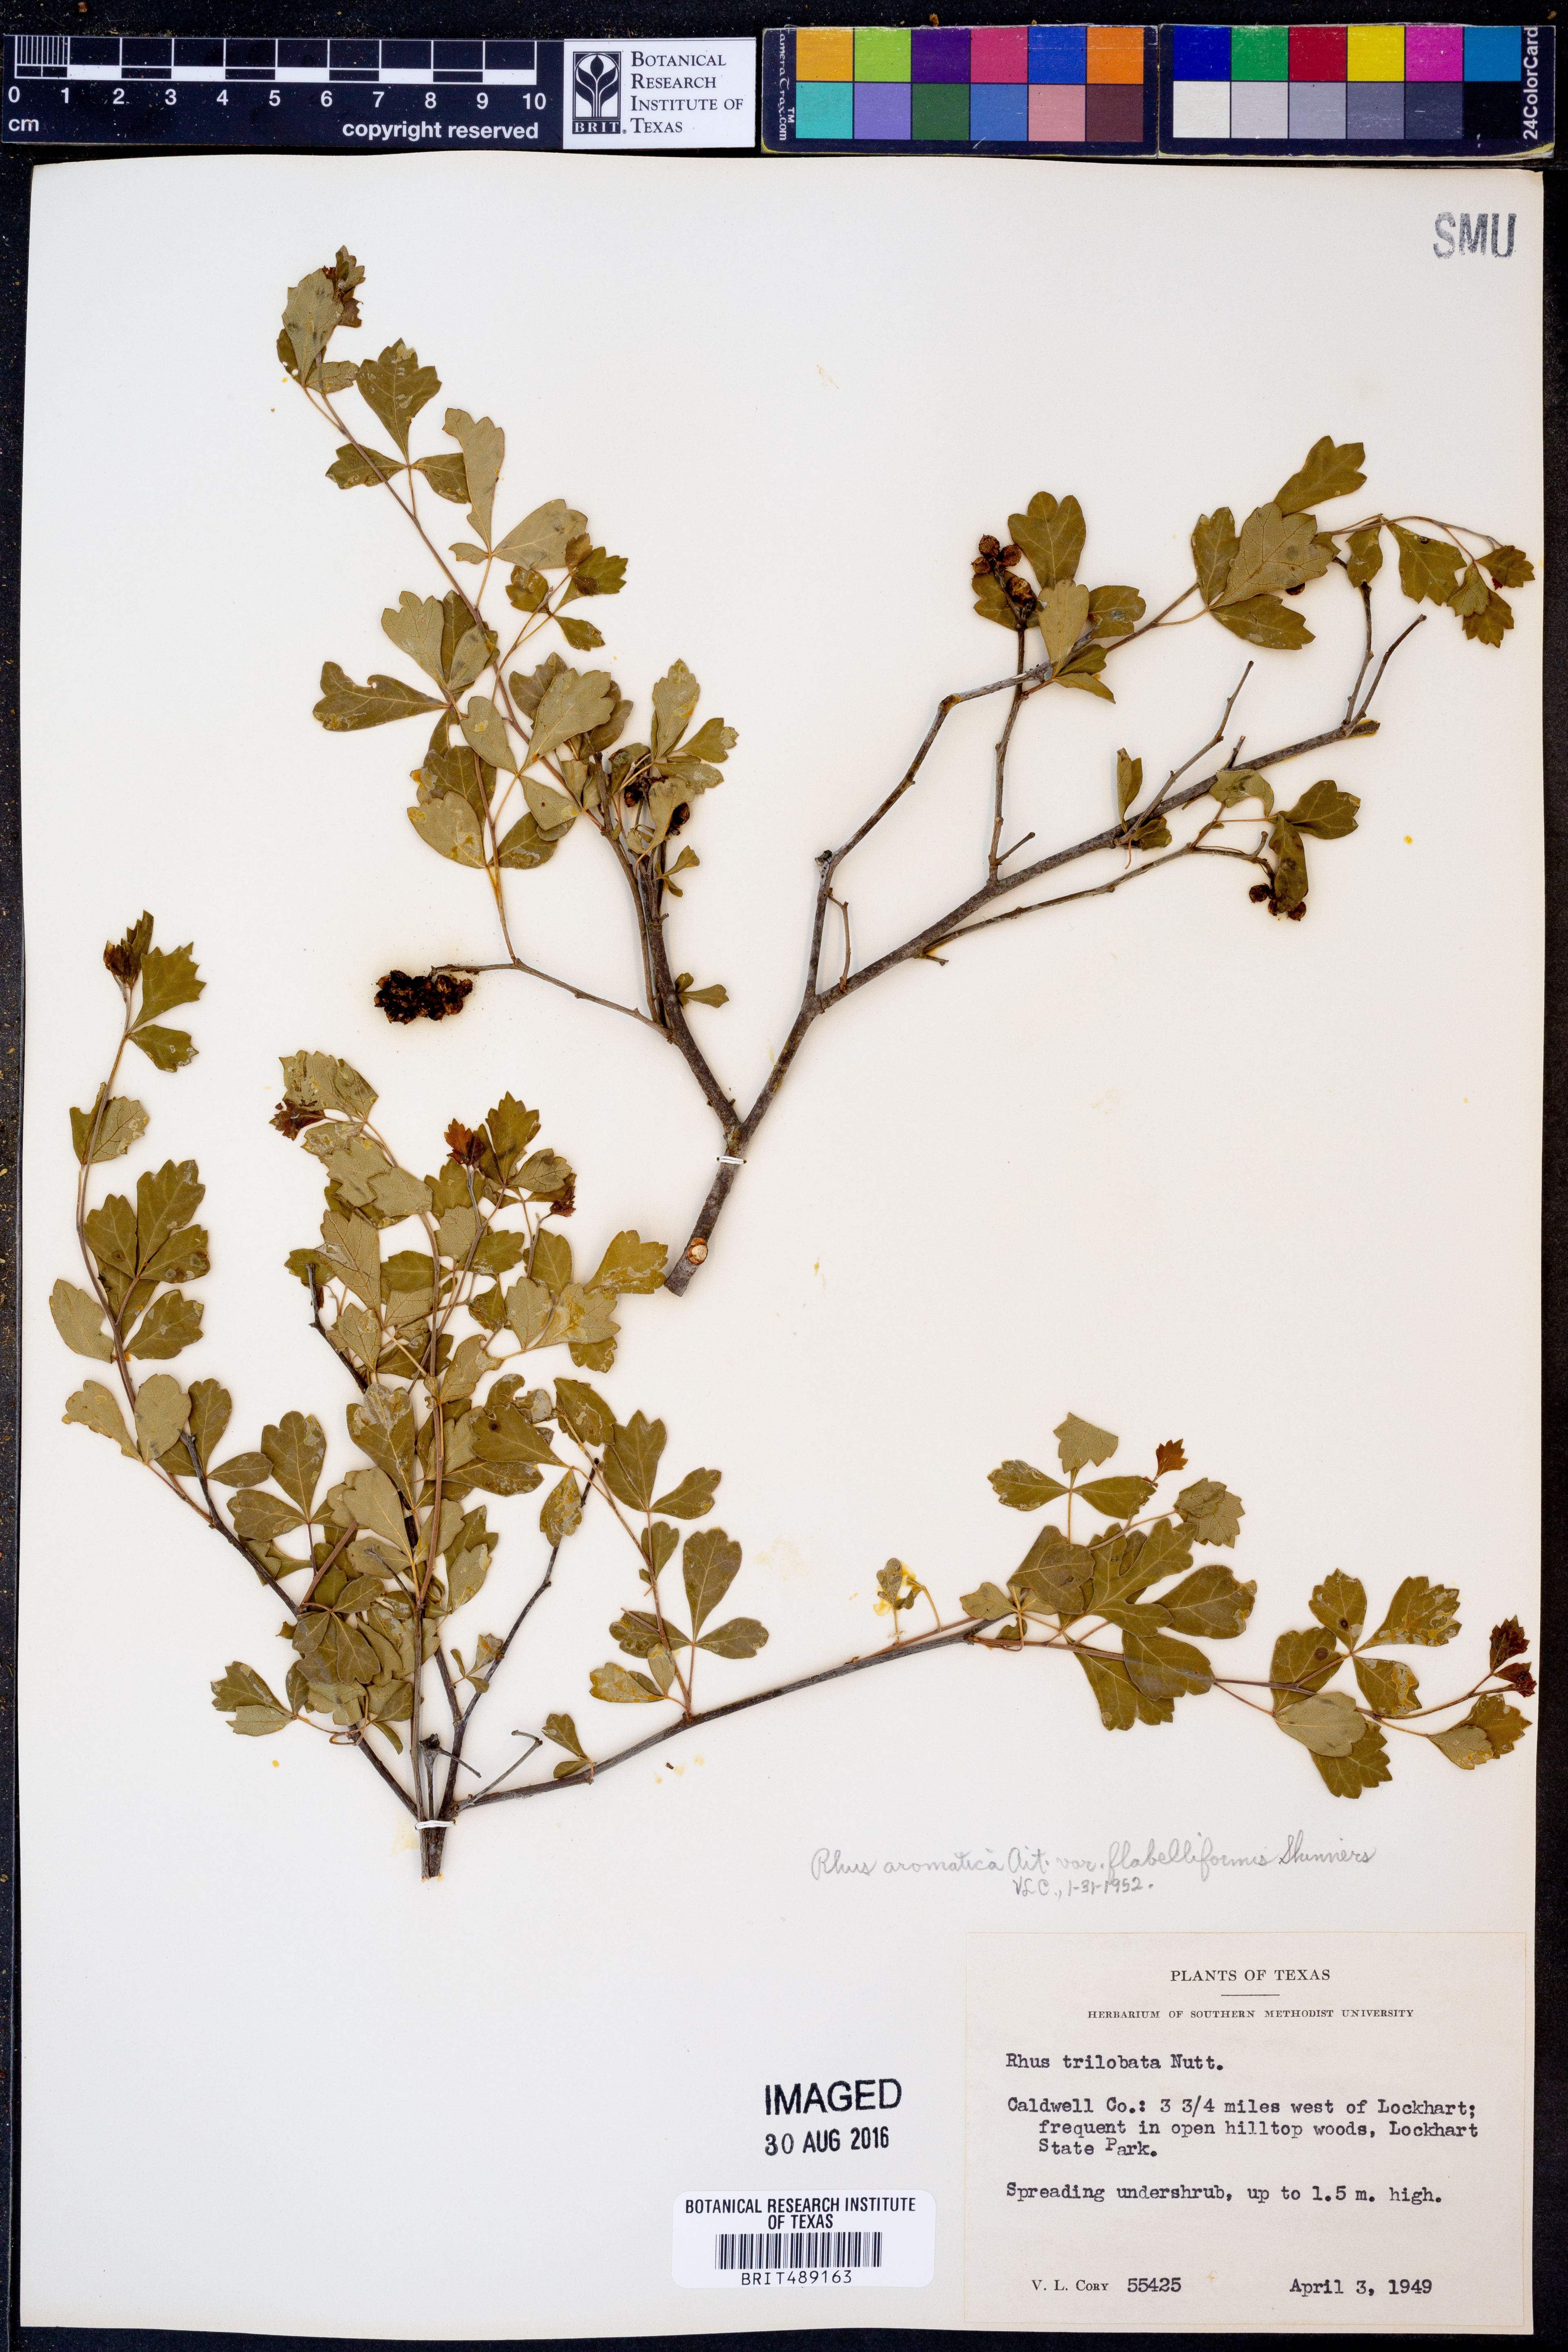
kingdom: Plantae
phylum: Tracheophyta
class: Magnoliopsida
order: Sapindales
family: Anacardiaceae
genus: Rhus
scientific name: Rhus trilobata
